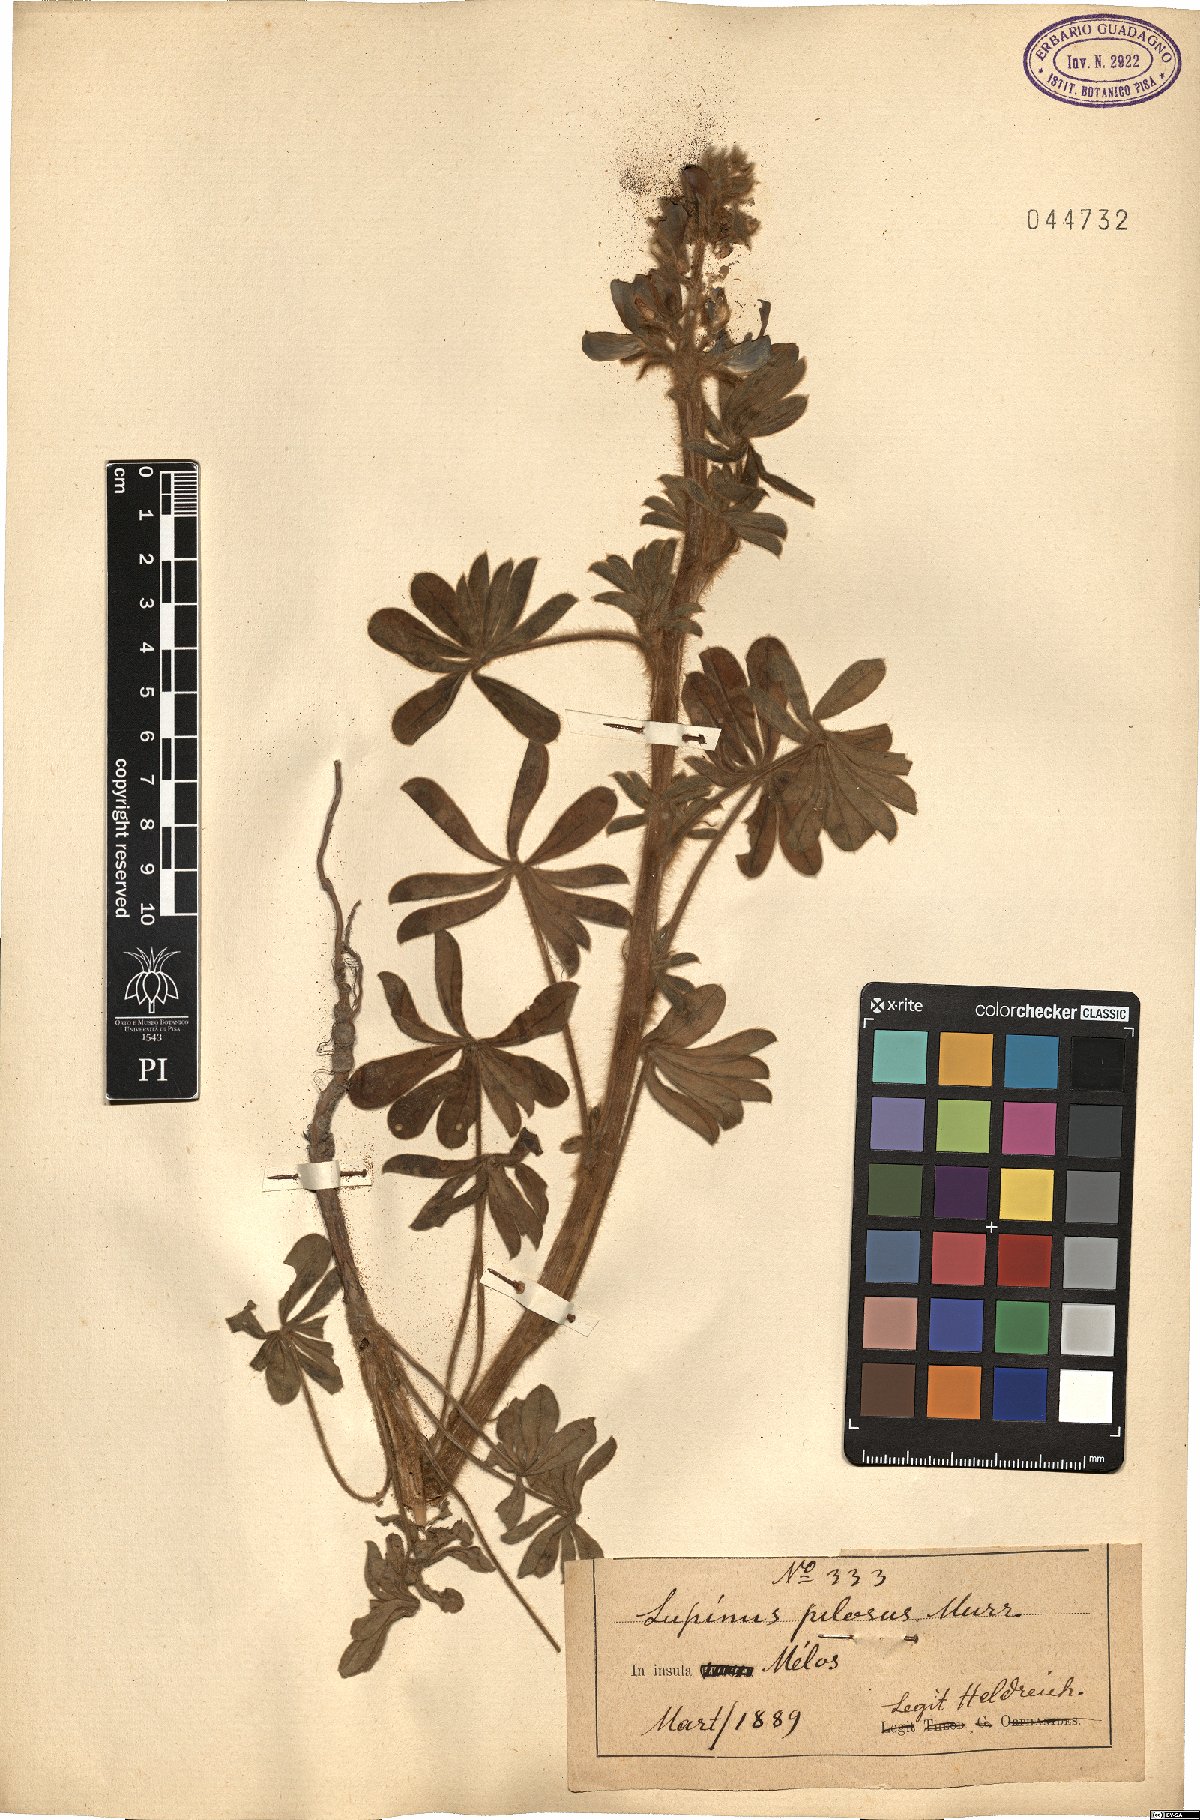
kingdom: Plantae
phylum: Tracheophyta
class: Magnoliopsida
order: Fabales
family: Fabaceae
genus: Lupinus
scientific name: Lupinus pilosus
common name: Blue lupine
